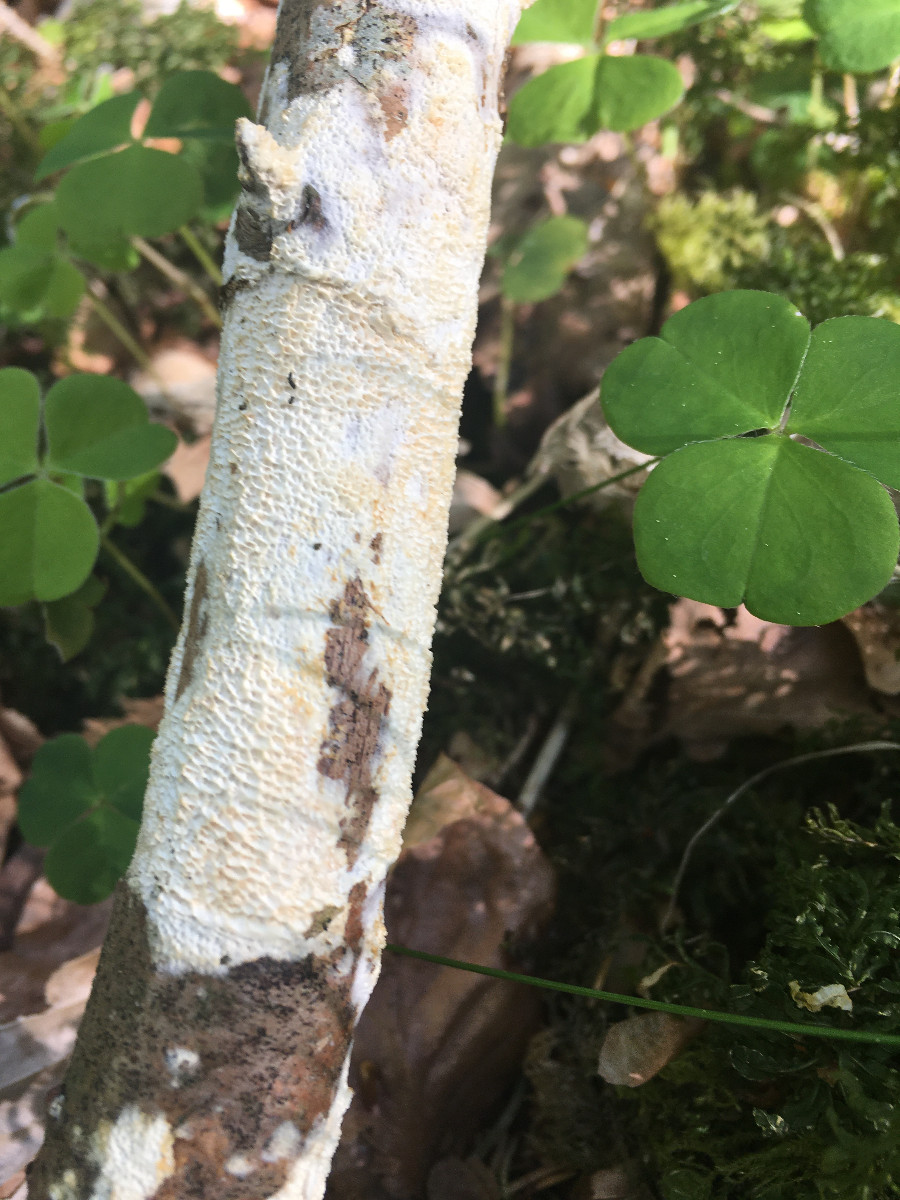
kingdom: Fungi
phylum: Basidiomycota
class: Agaricomycetes
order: Hymenochaetales
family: Schizoporaceae
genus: Xylodon
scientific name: Xylodon
